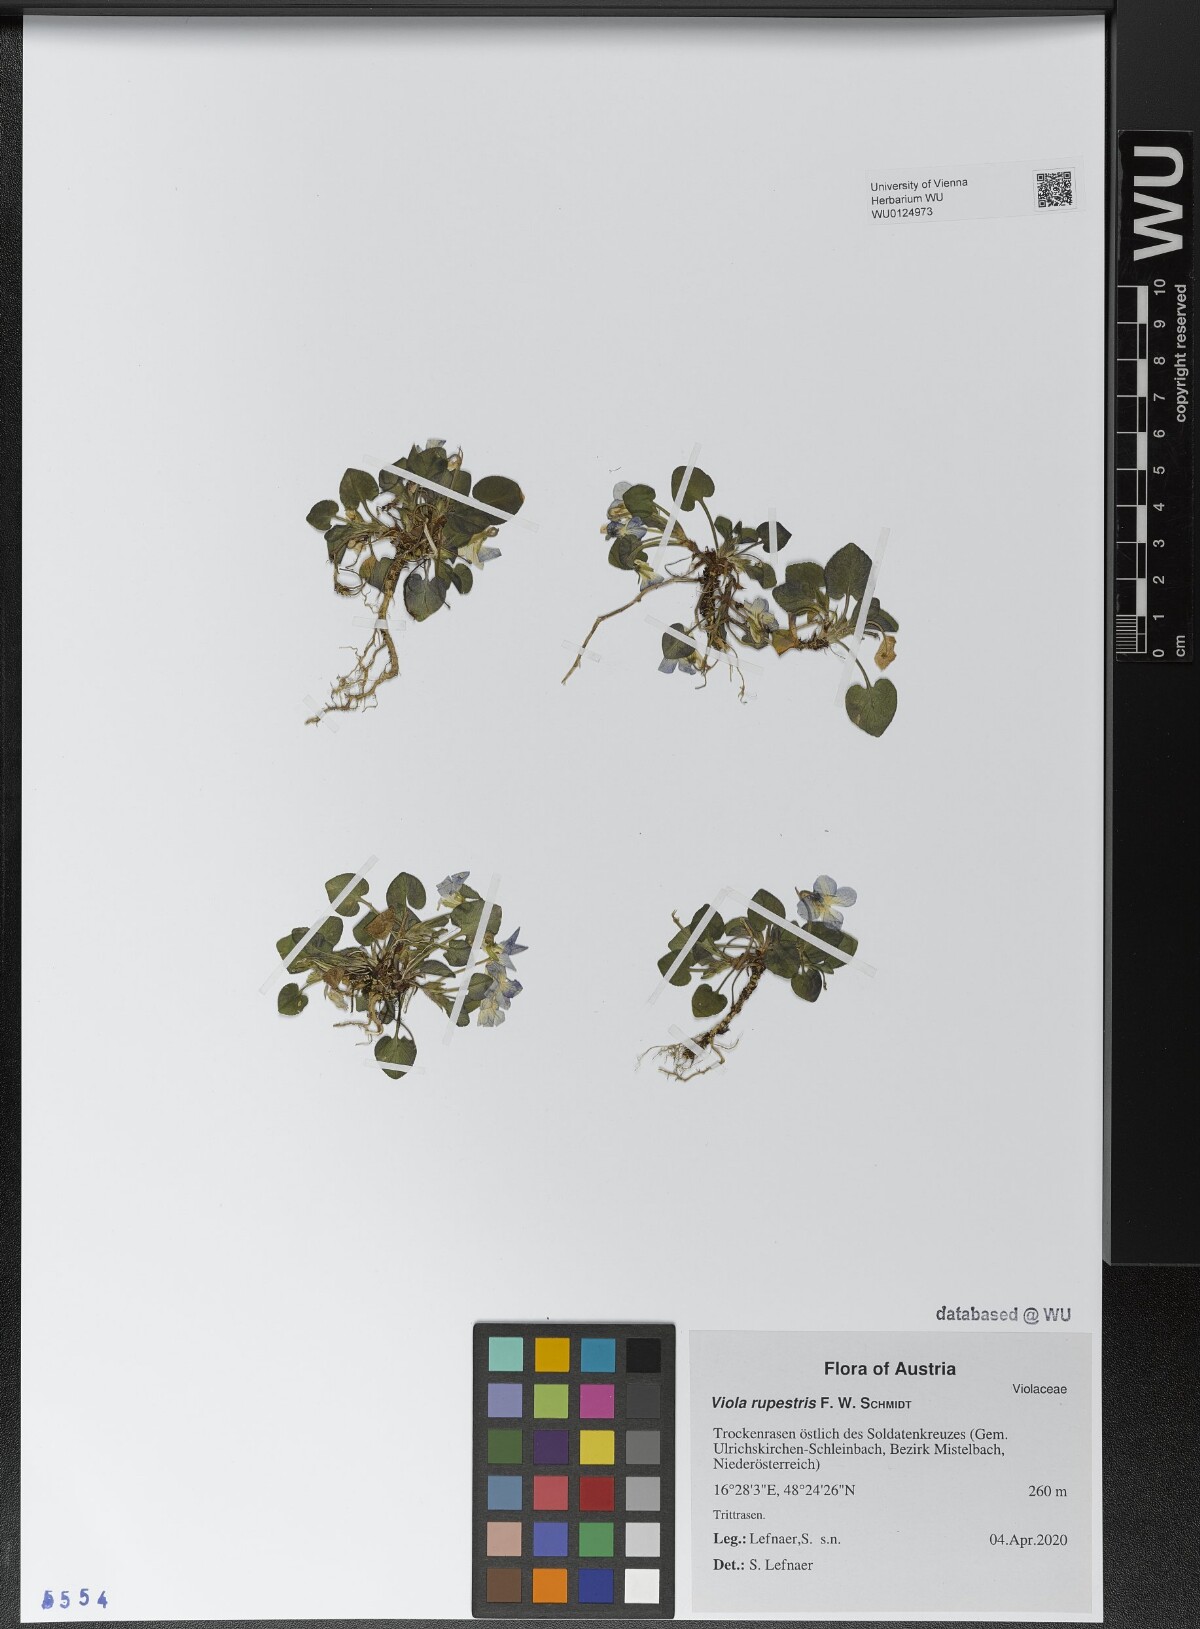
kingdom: Plantae
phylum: Tracheophyta
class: Magnoliopsida
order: Malpighiales
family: Violaceae
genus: Viola
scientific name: Viola rupestris
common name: Teesdale violet
